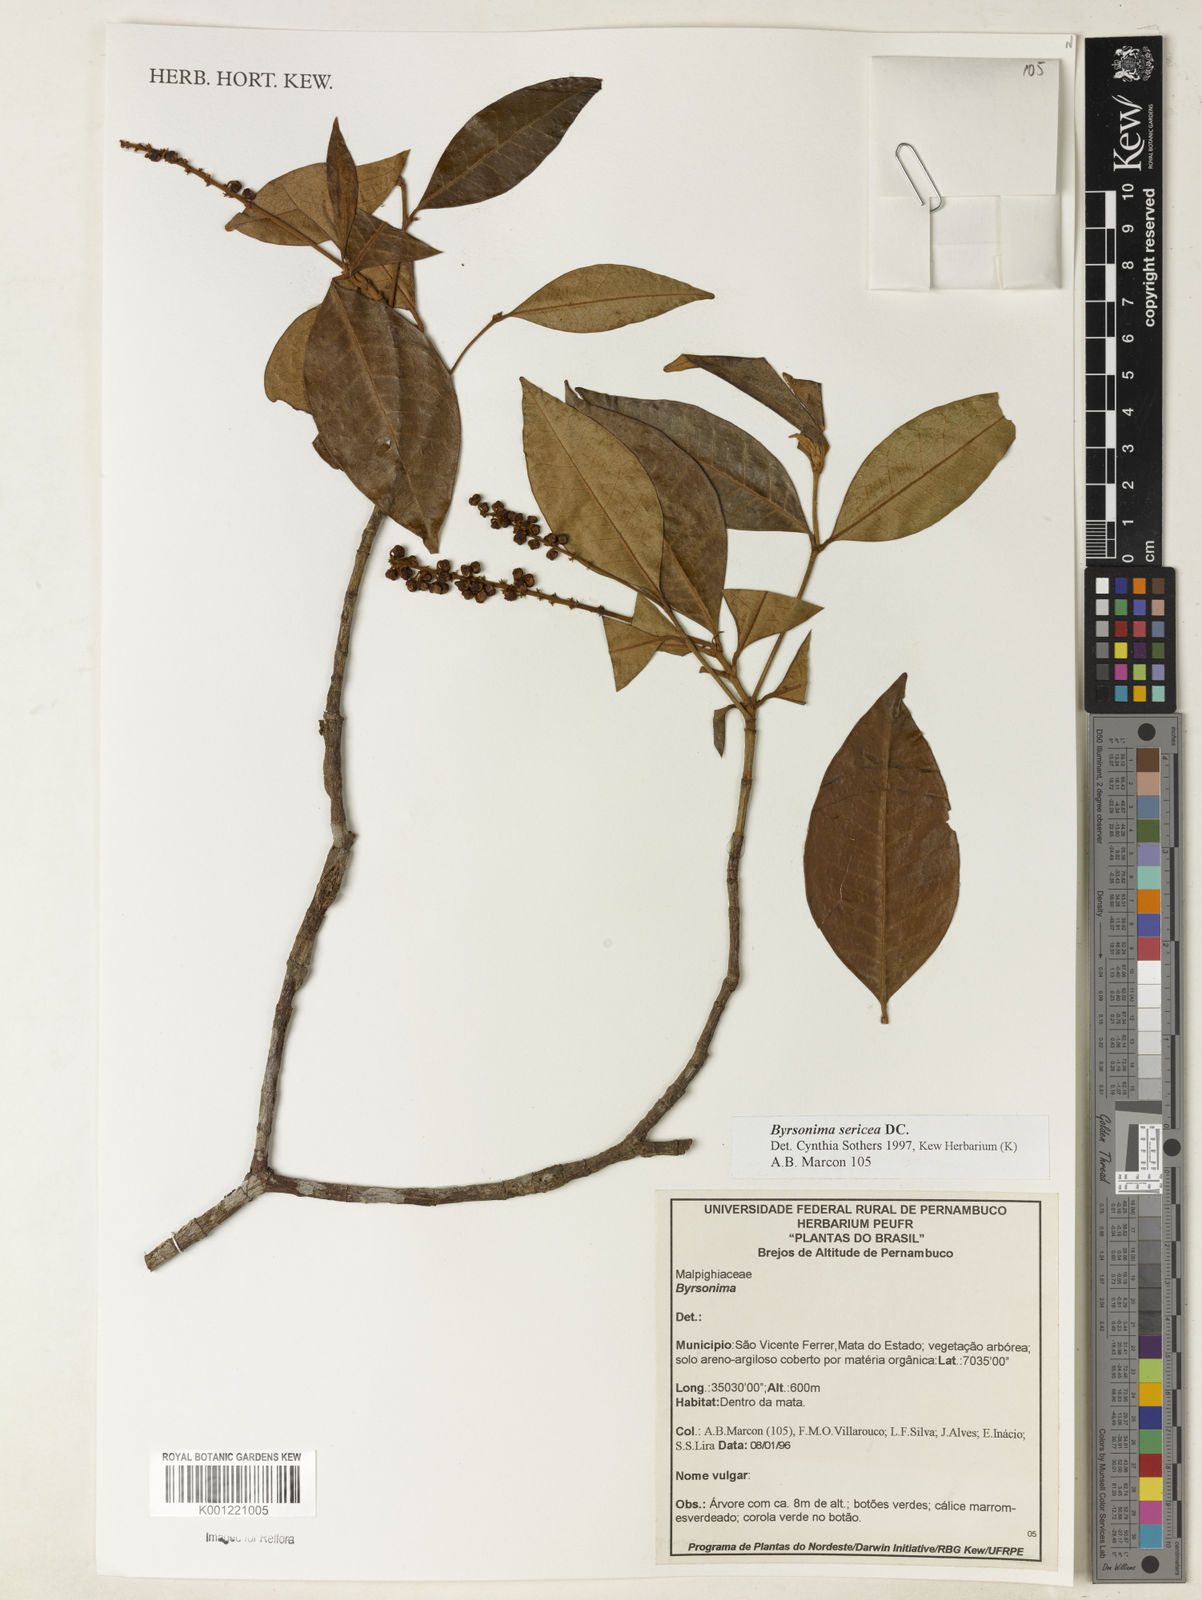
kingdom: Plantae
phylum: Tracheophyta
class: Magnoliopsida
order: Malpighiales
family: Malpighiaceae
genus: Byrsonima
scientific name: Byrsonima sericea
